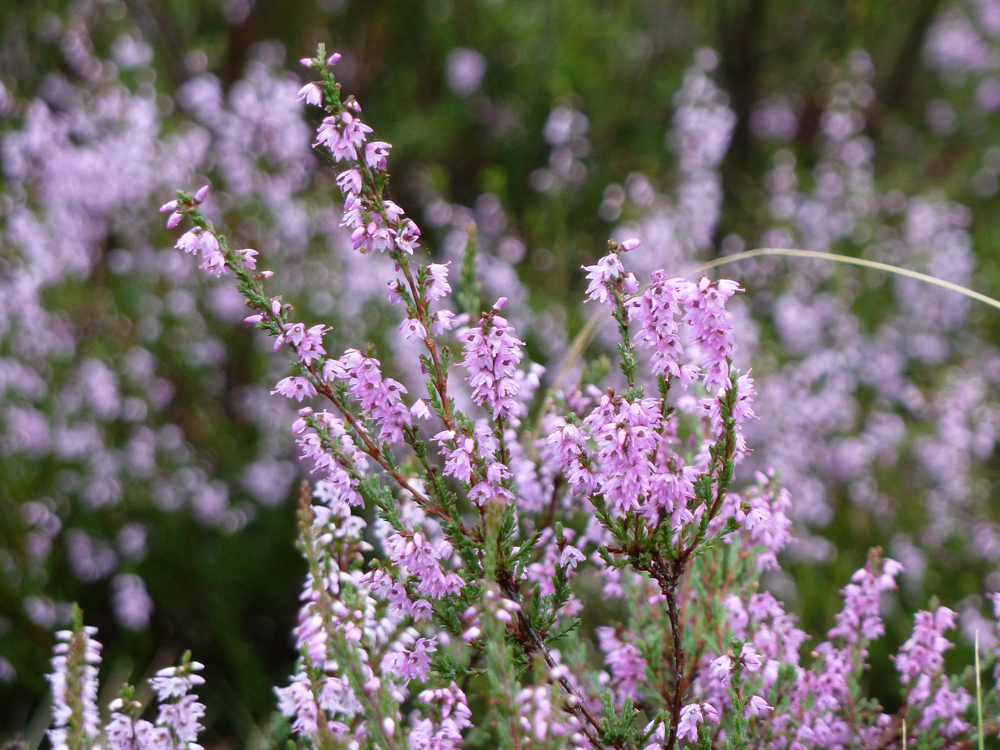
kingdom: Plantae
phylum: Tracheophyta
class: Magnoliopsida
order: Ericales
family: Ericaceae
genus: Calluna
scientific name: Calluna vulgaris
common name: Heather
